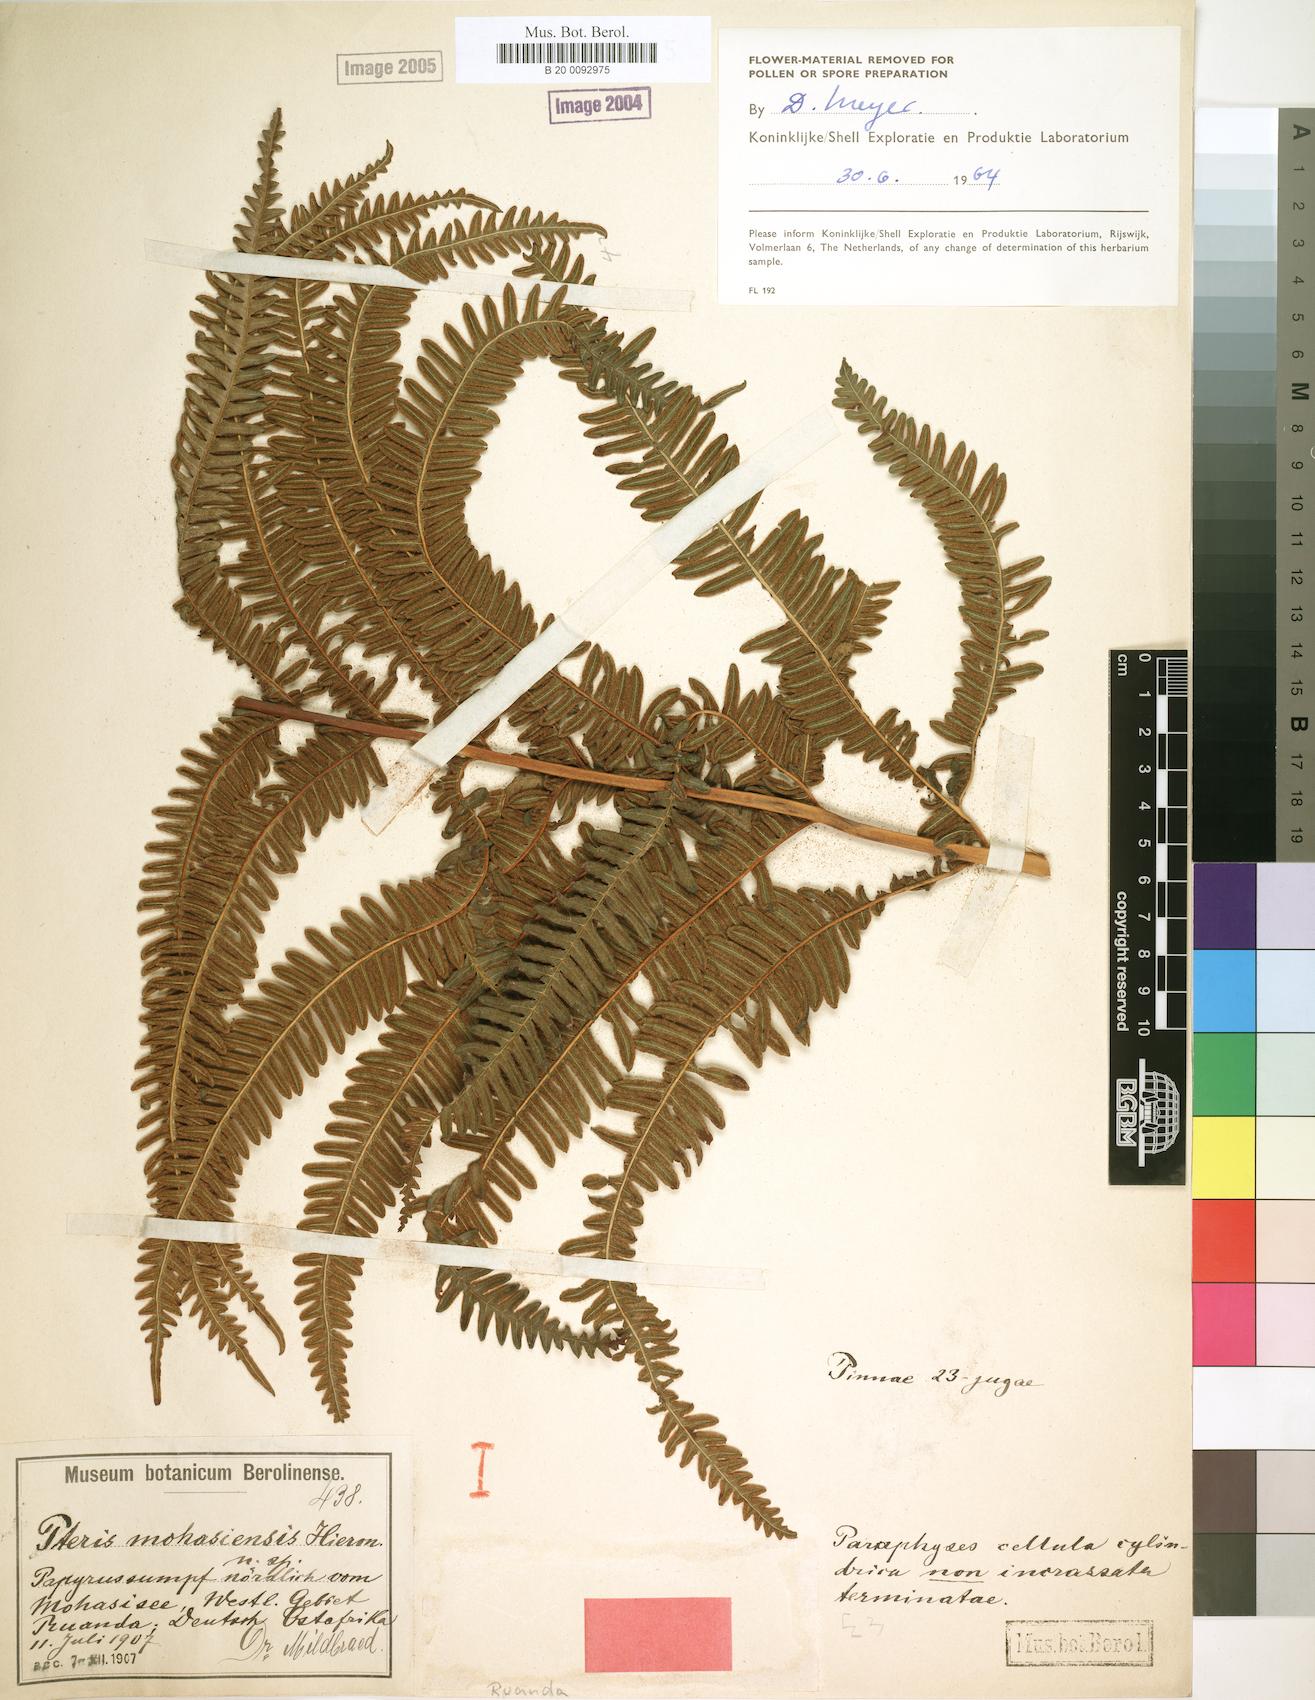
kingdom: Plantae
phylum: Tracheophyta
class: Polypodiopsida
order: Polypodiales
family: Pteridaceae
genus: Pteris
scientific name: Pteris friesii
